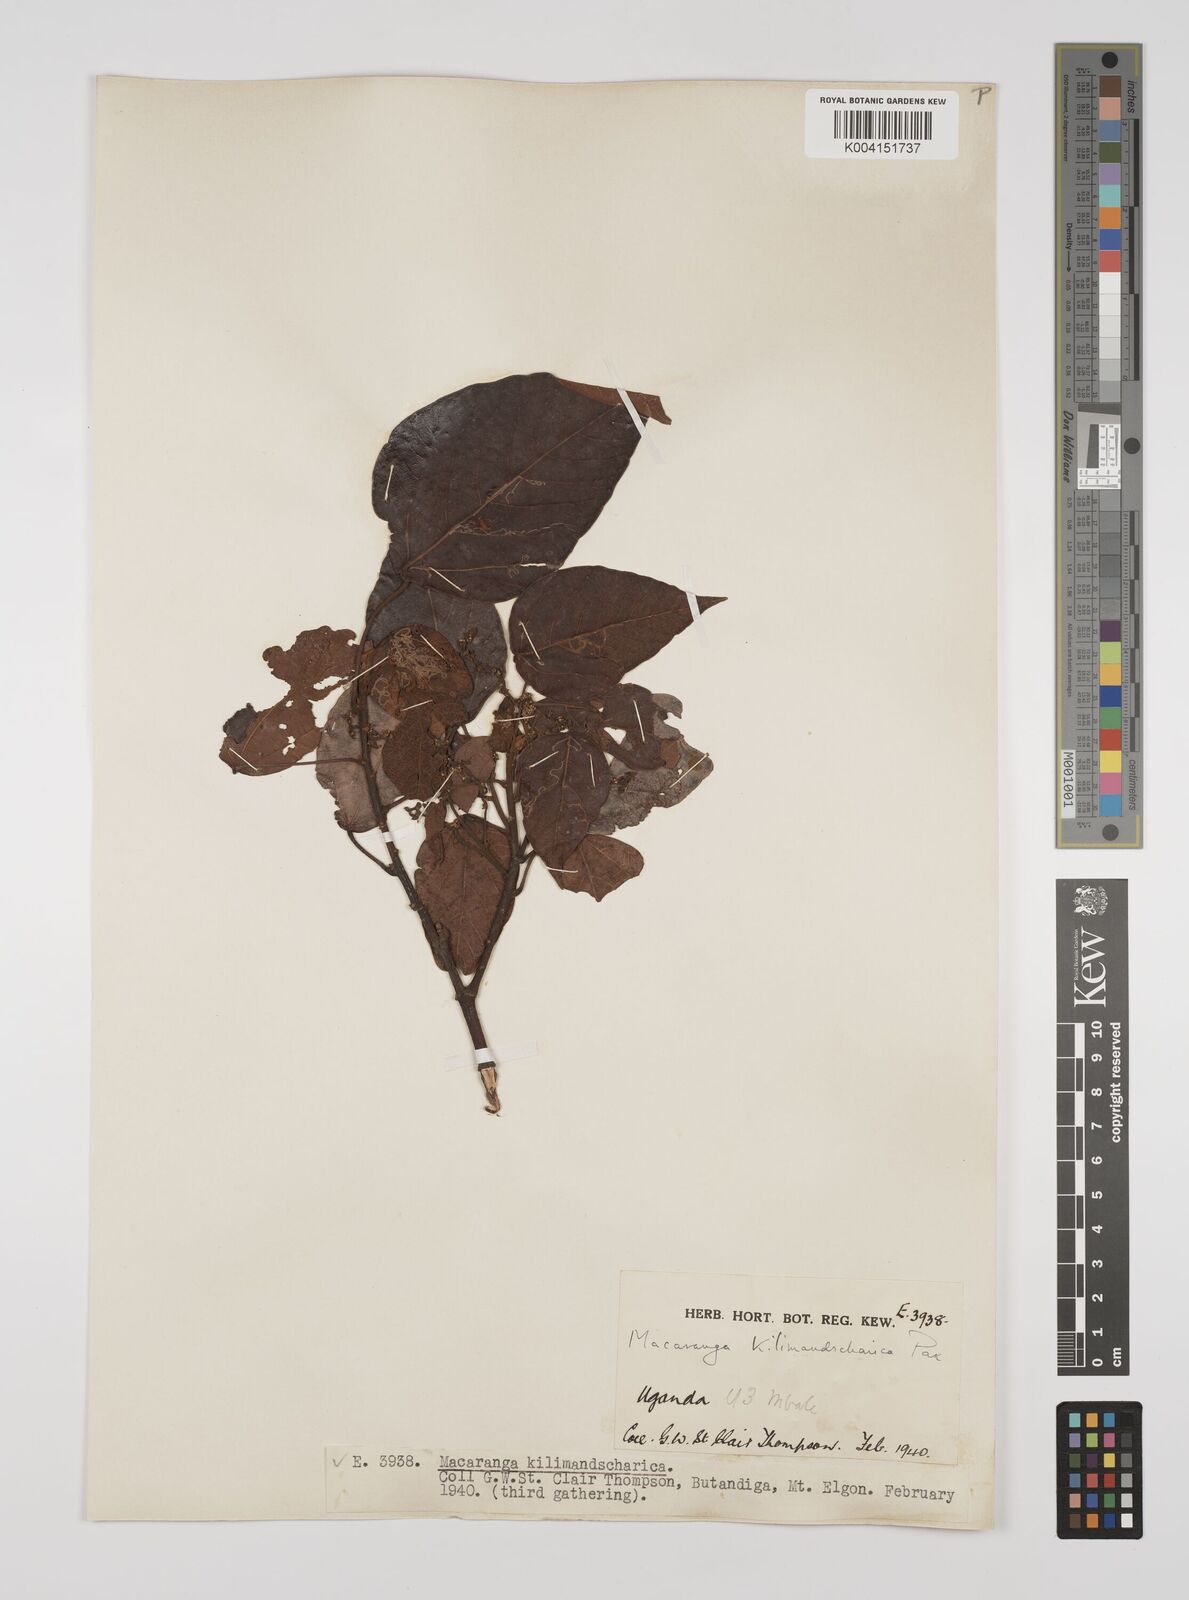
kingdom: Plantae
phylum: Tracheophyta
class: Magnoliopsida
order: Malpighiales
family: Euphorbiaceae
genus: Macaranga
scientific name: Macaranga kilimandscharica
